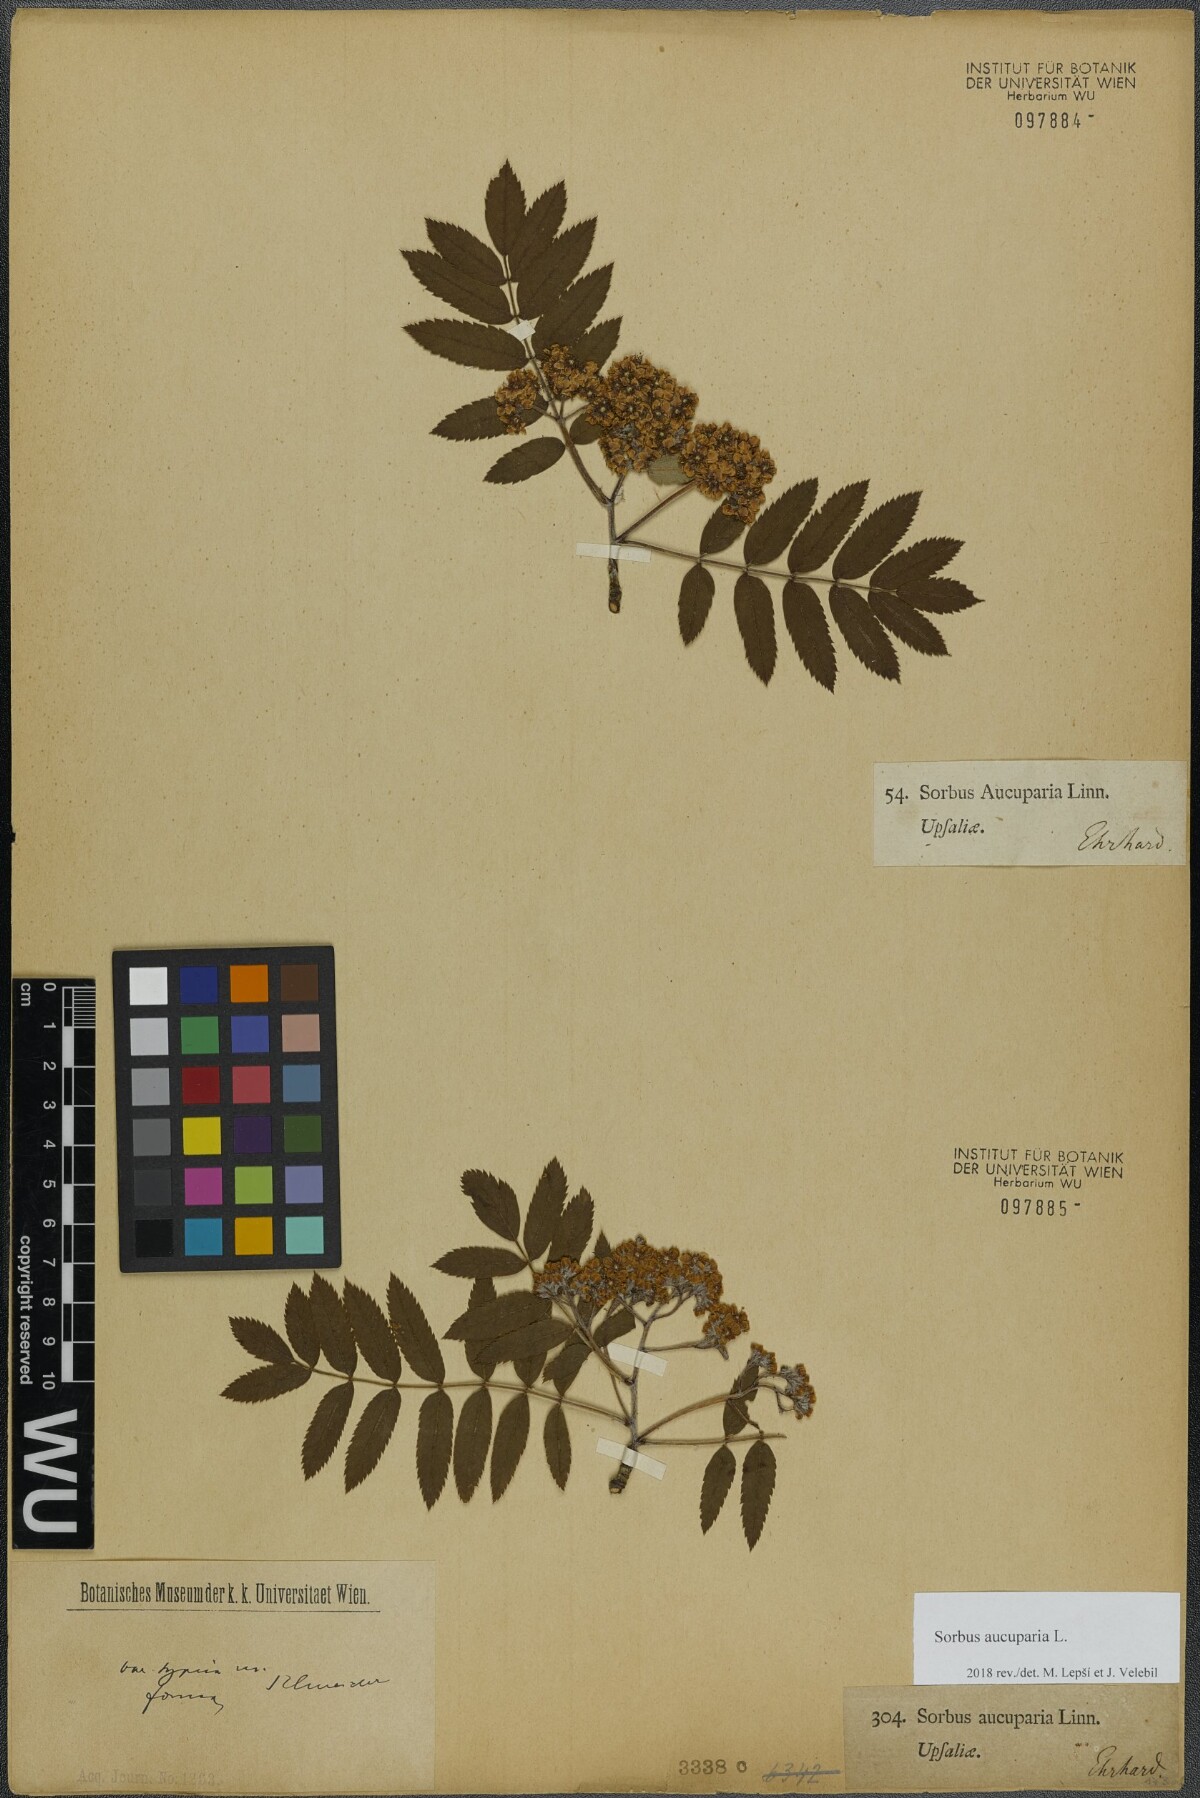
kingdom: Plantae
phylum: Tracheophyta
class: Magnoliopsida
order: Rosales
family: Rosaceae
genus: Sorbus
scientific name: Sorbus aucuparia
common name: Rowan
